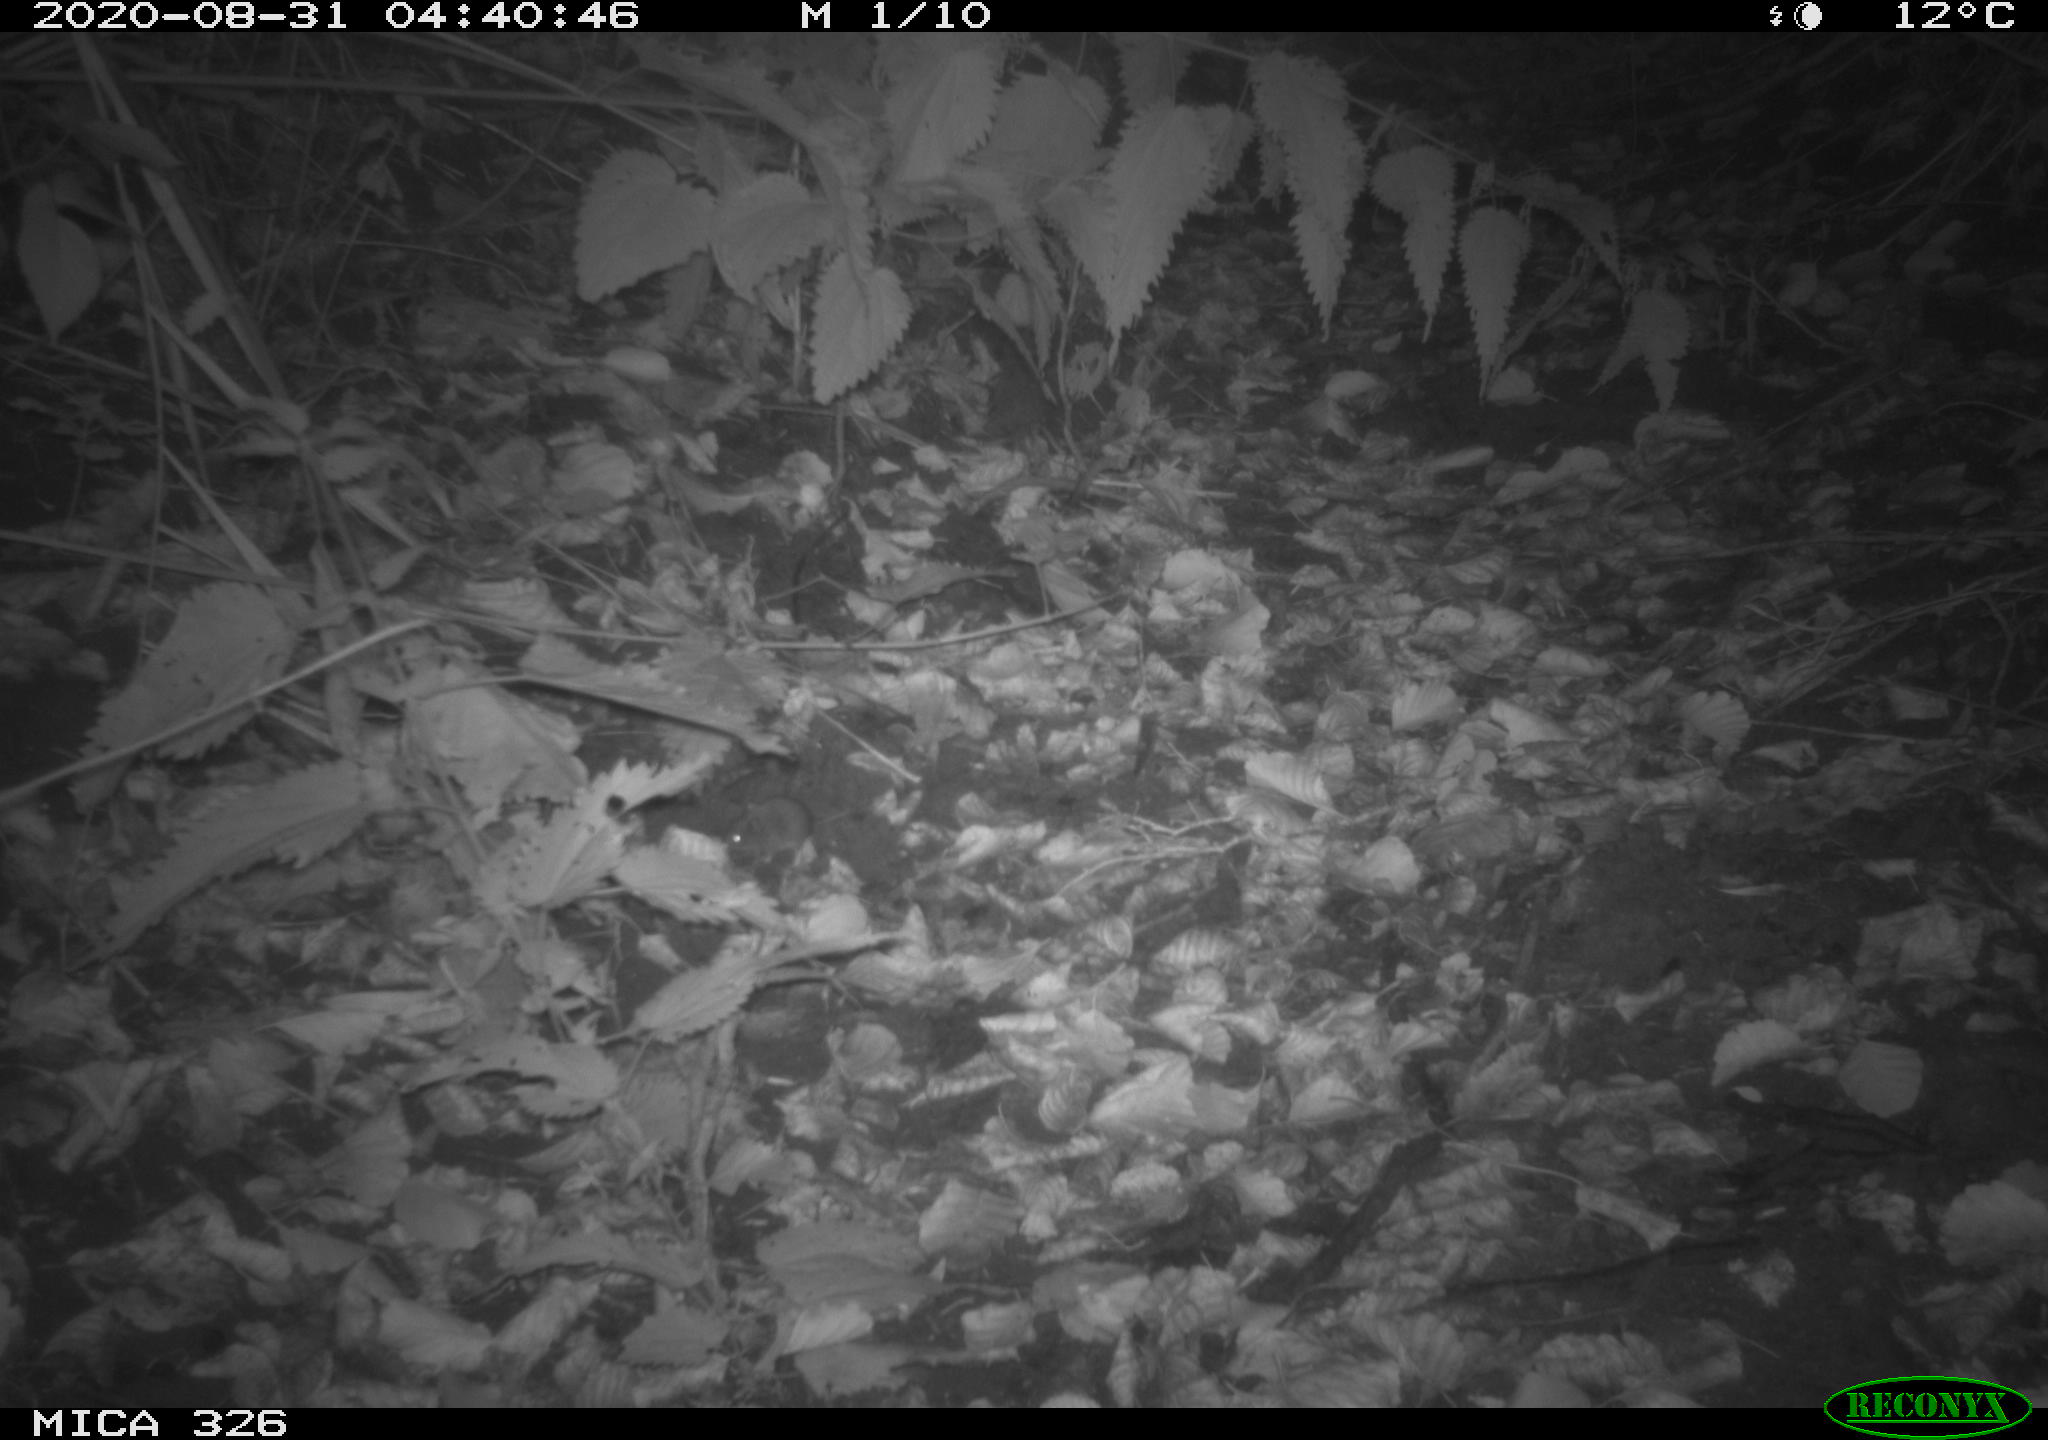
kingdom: Animalia
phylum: Chordata
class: Mammalia
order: Rodentia
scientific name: Rodentia
